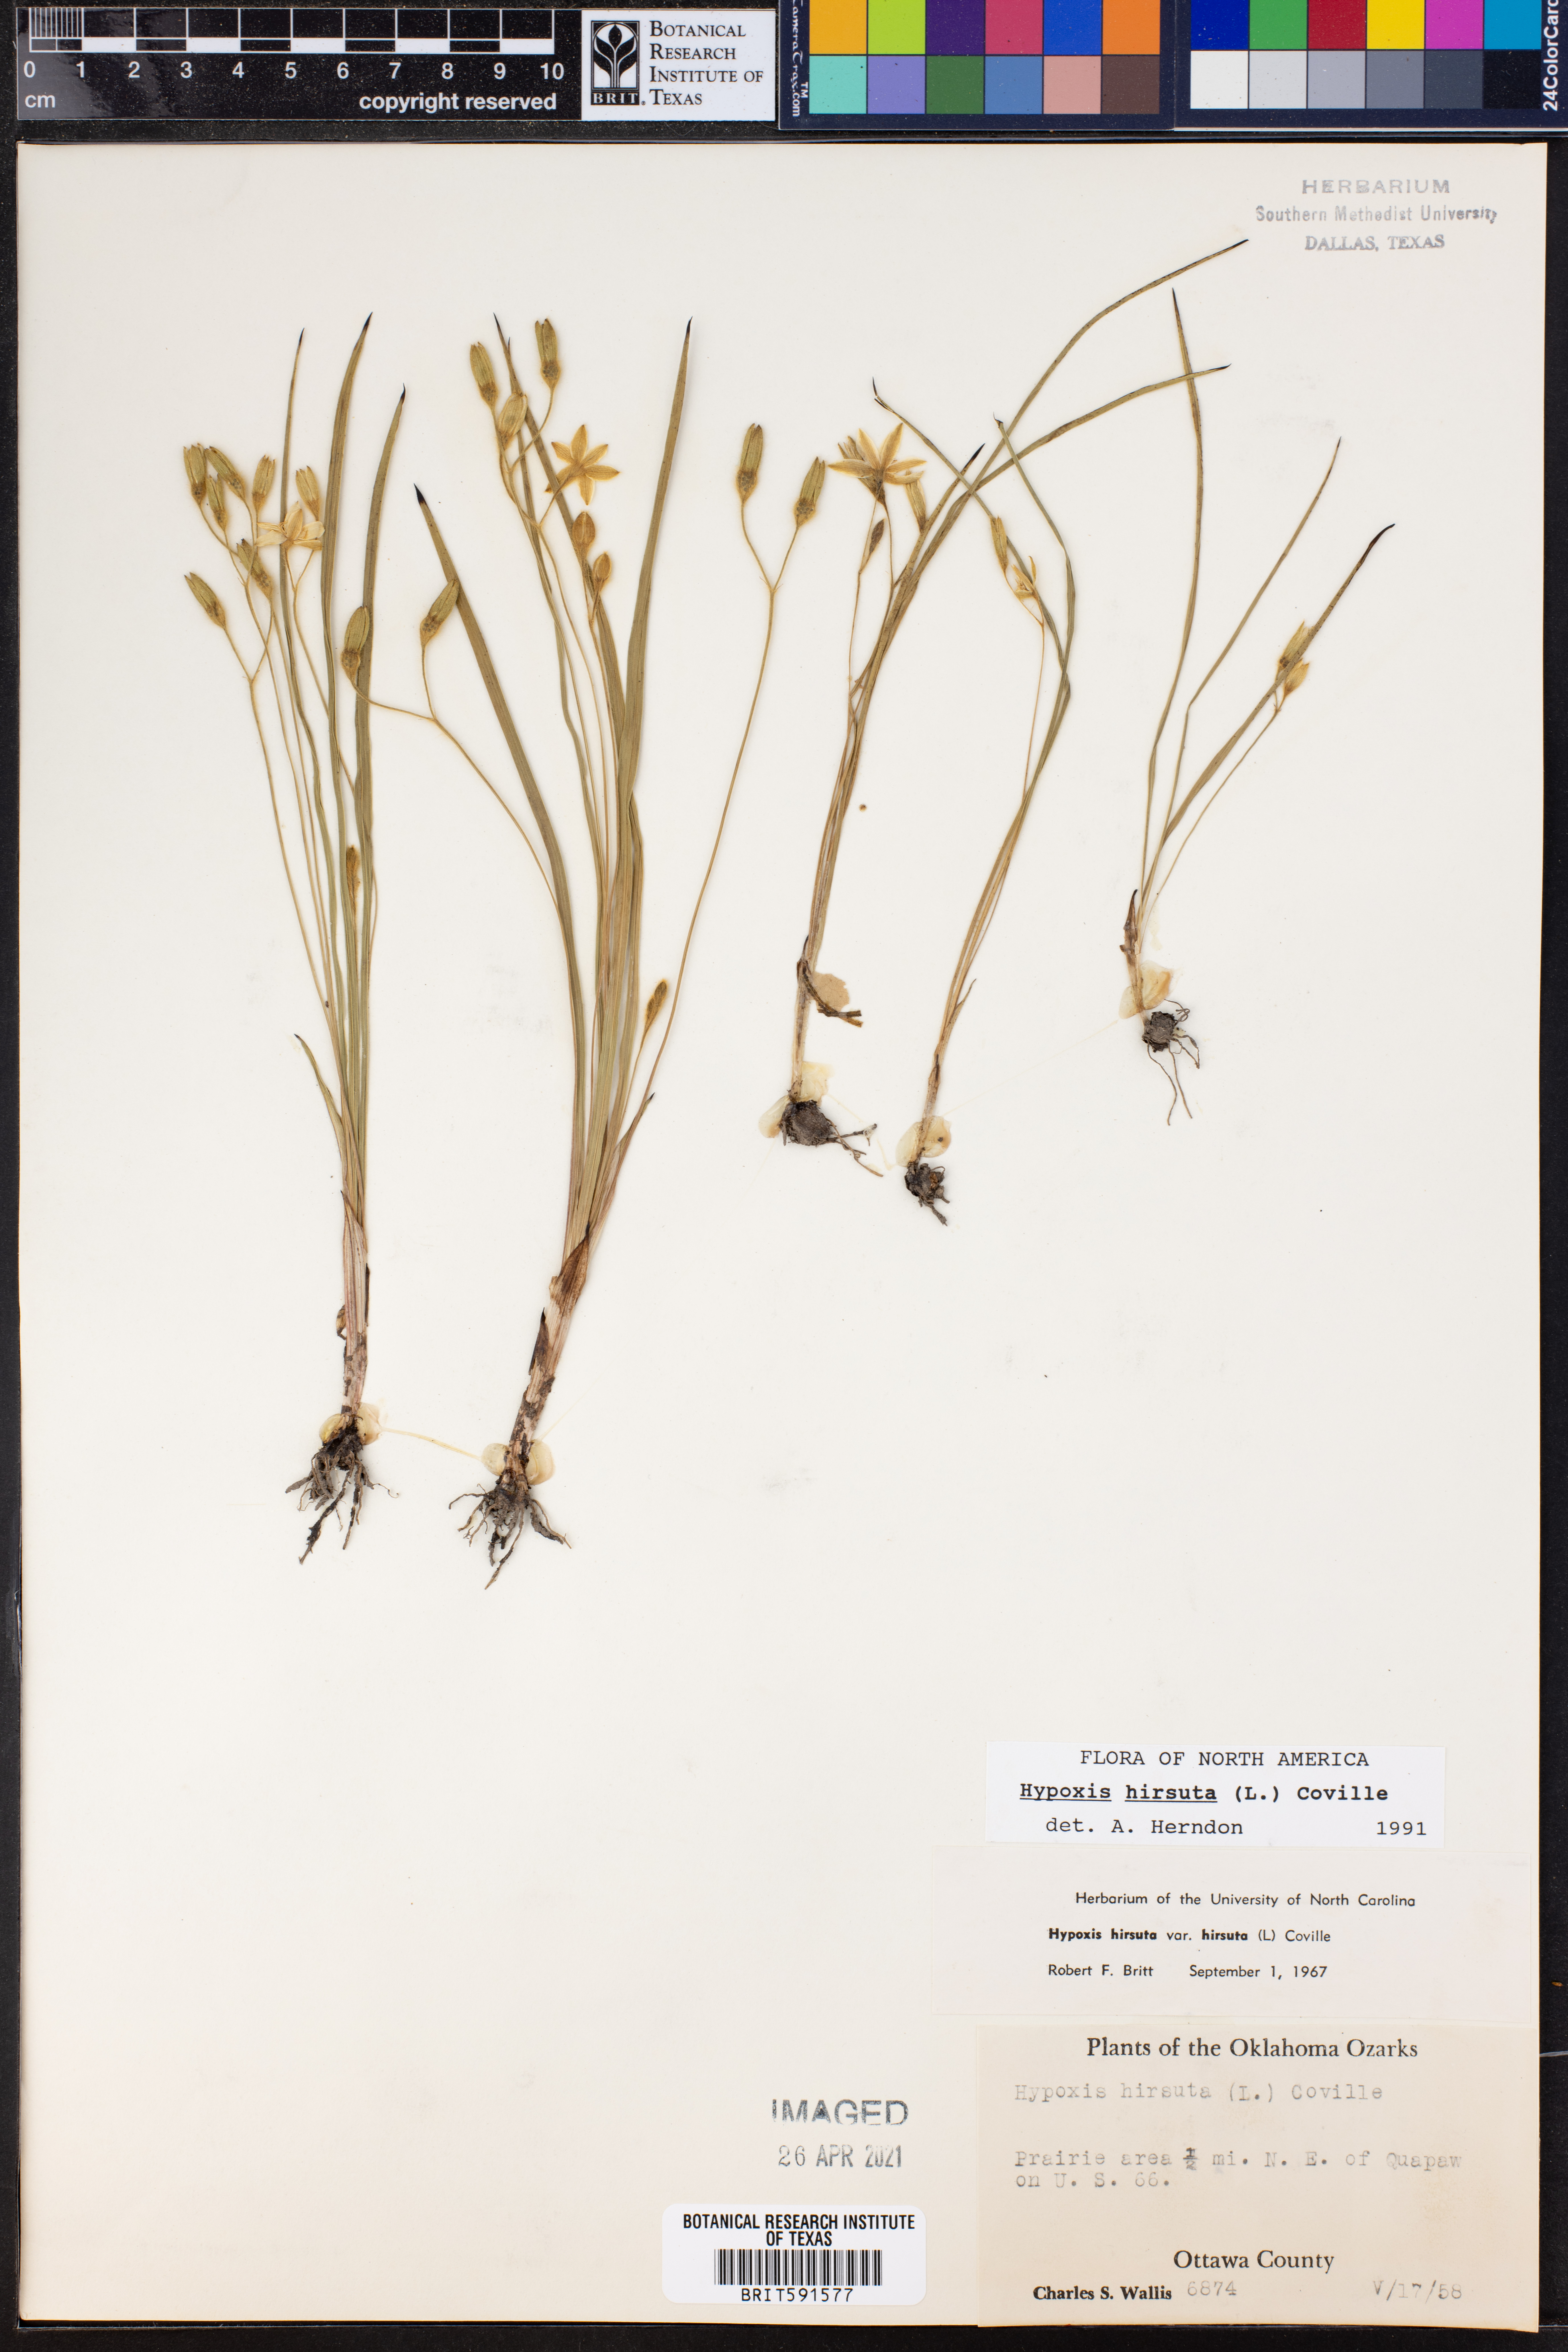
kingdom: Plantae
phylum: Tracheophyta
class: Liliopsida
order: Asparagales
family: Hypoxidaceae
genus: Hypoxis
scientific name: Hypoxis hirsuta
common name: Common goldstar
